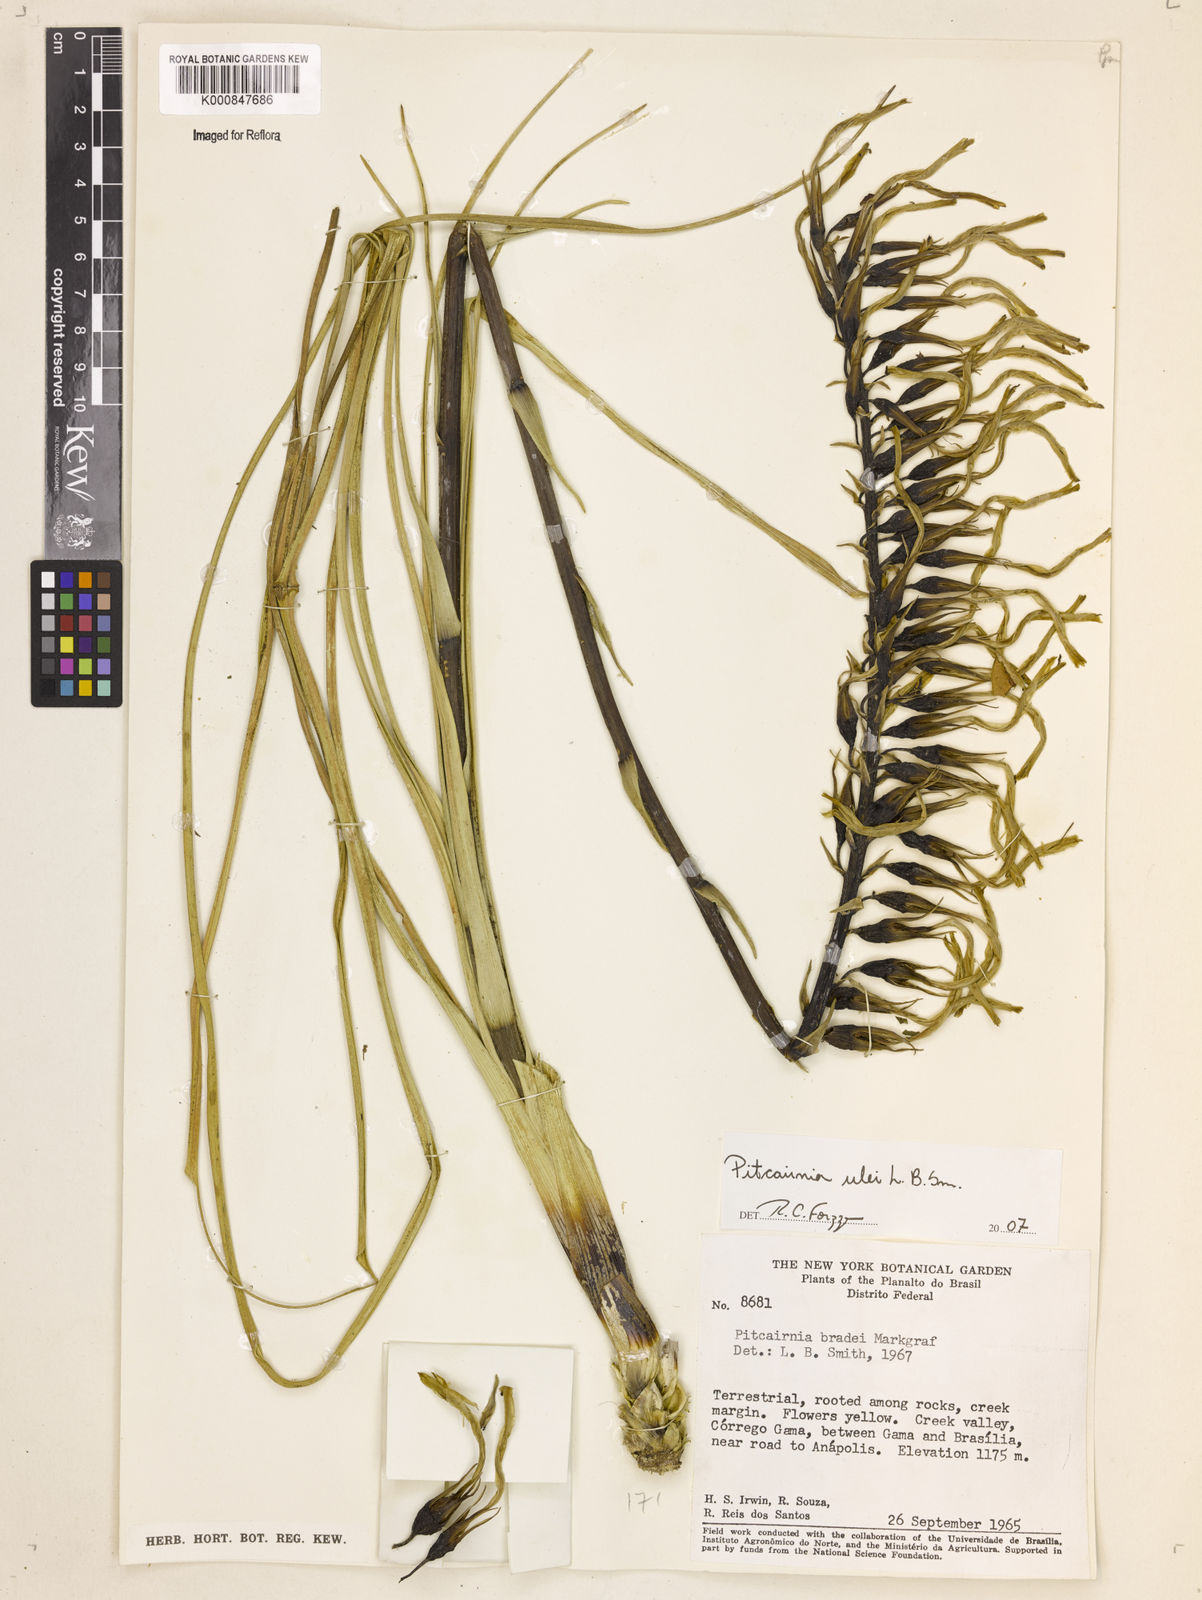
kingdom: Plantae
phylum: Tracheophyta
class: Liliopsida
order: Poales
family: Bromeliaceae
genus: Pitcairnia
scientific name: Pitcairnia ulei
